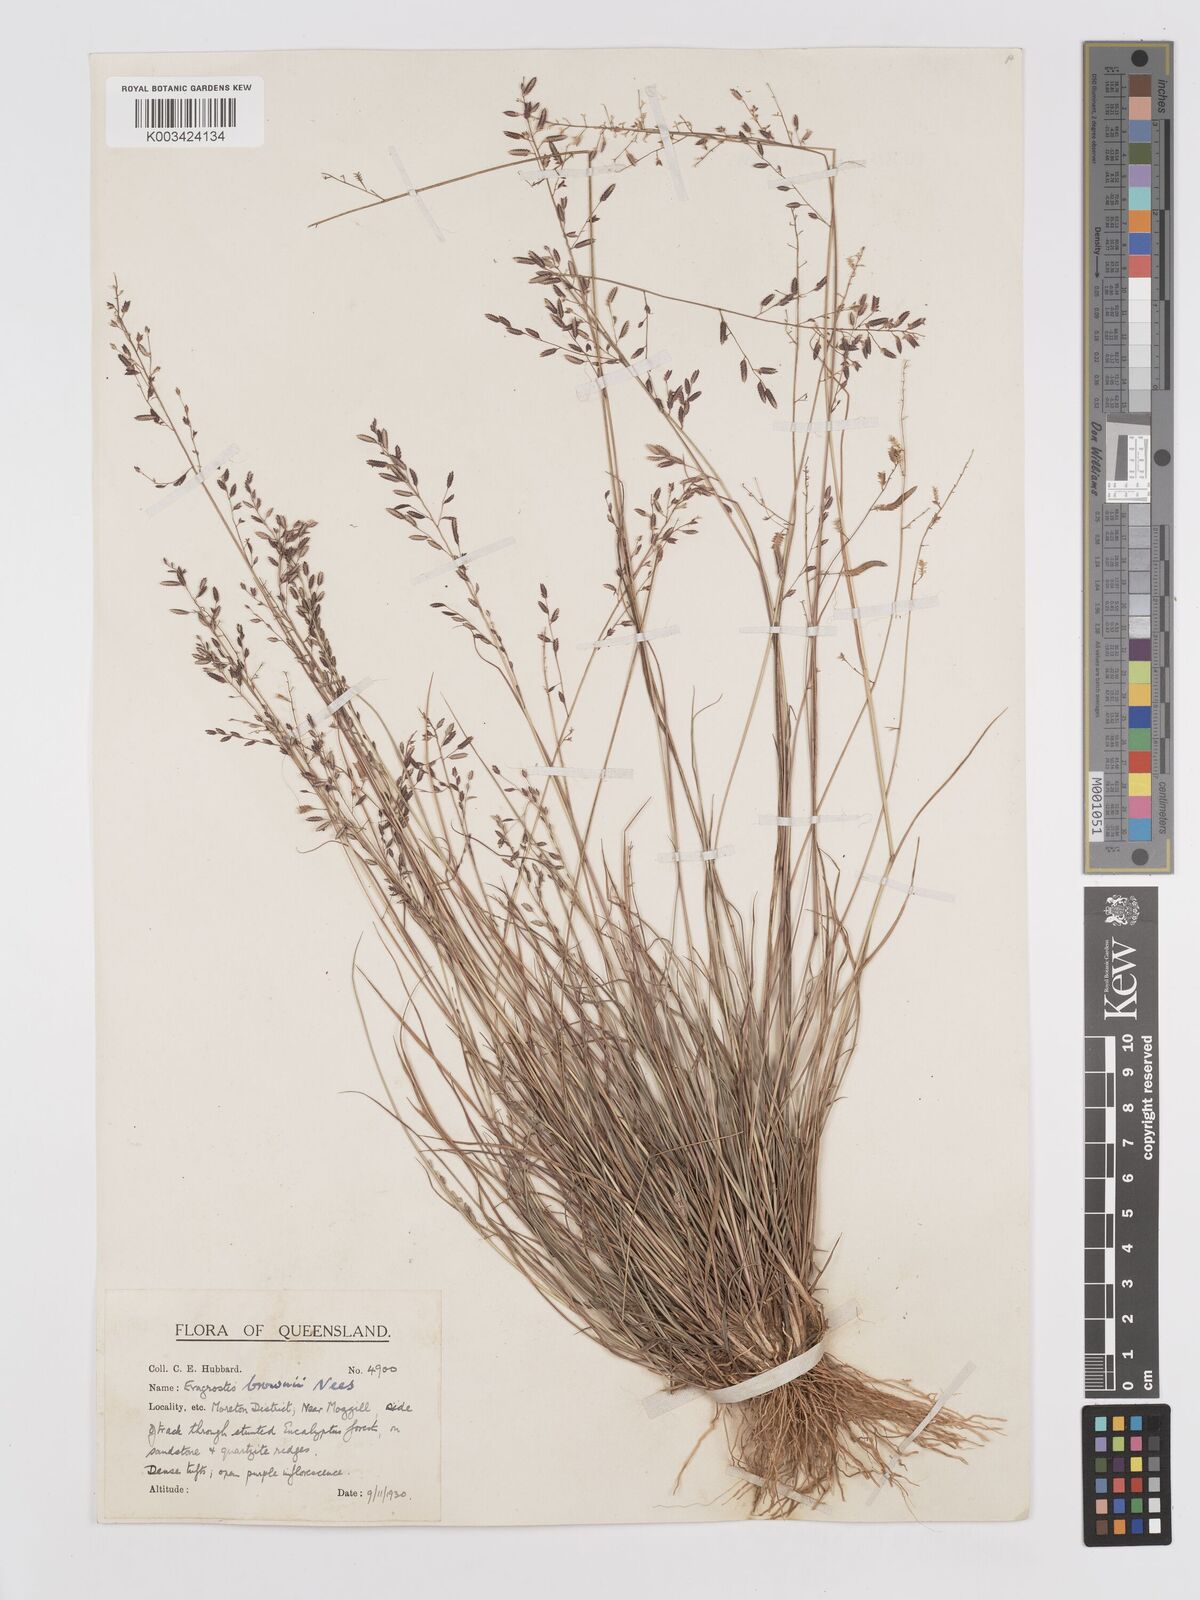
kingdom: Plantae
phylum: Tracheophyta
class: Liliopsida
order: Poales
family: Poaceae
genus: Eragrostis
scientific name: Eragrostis brownii
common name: Lovegrass
